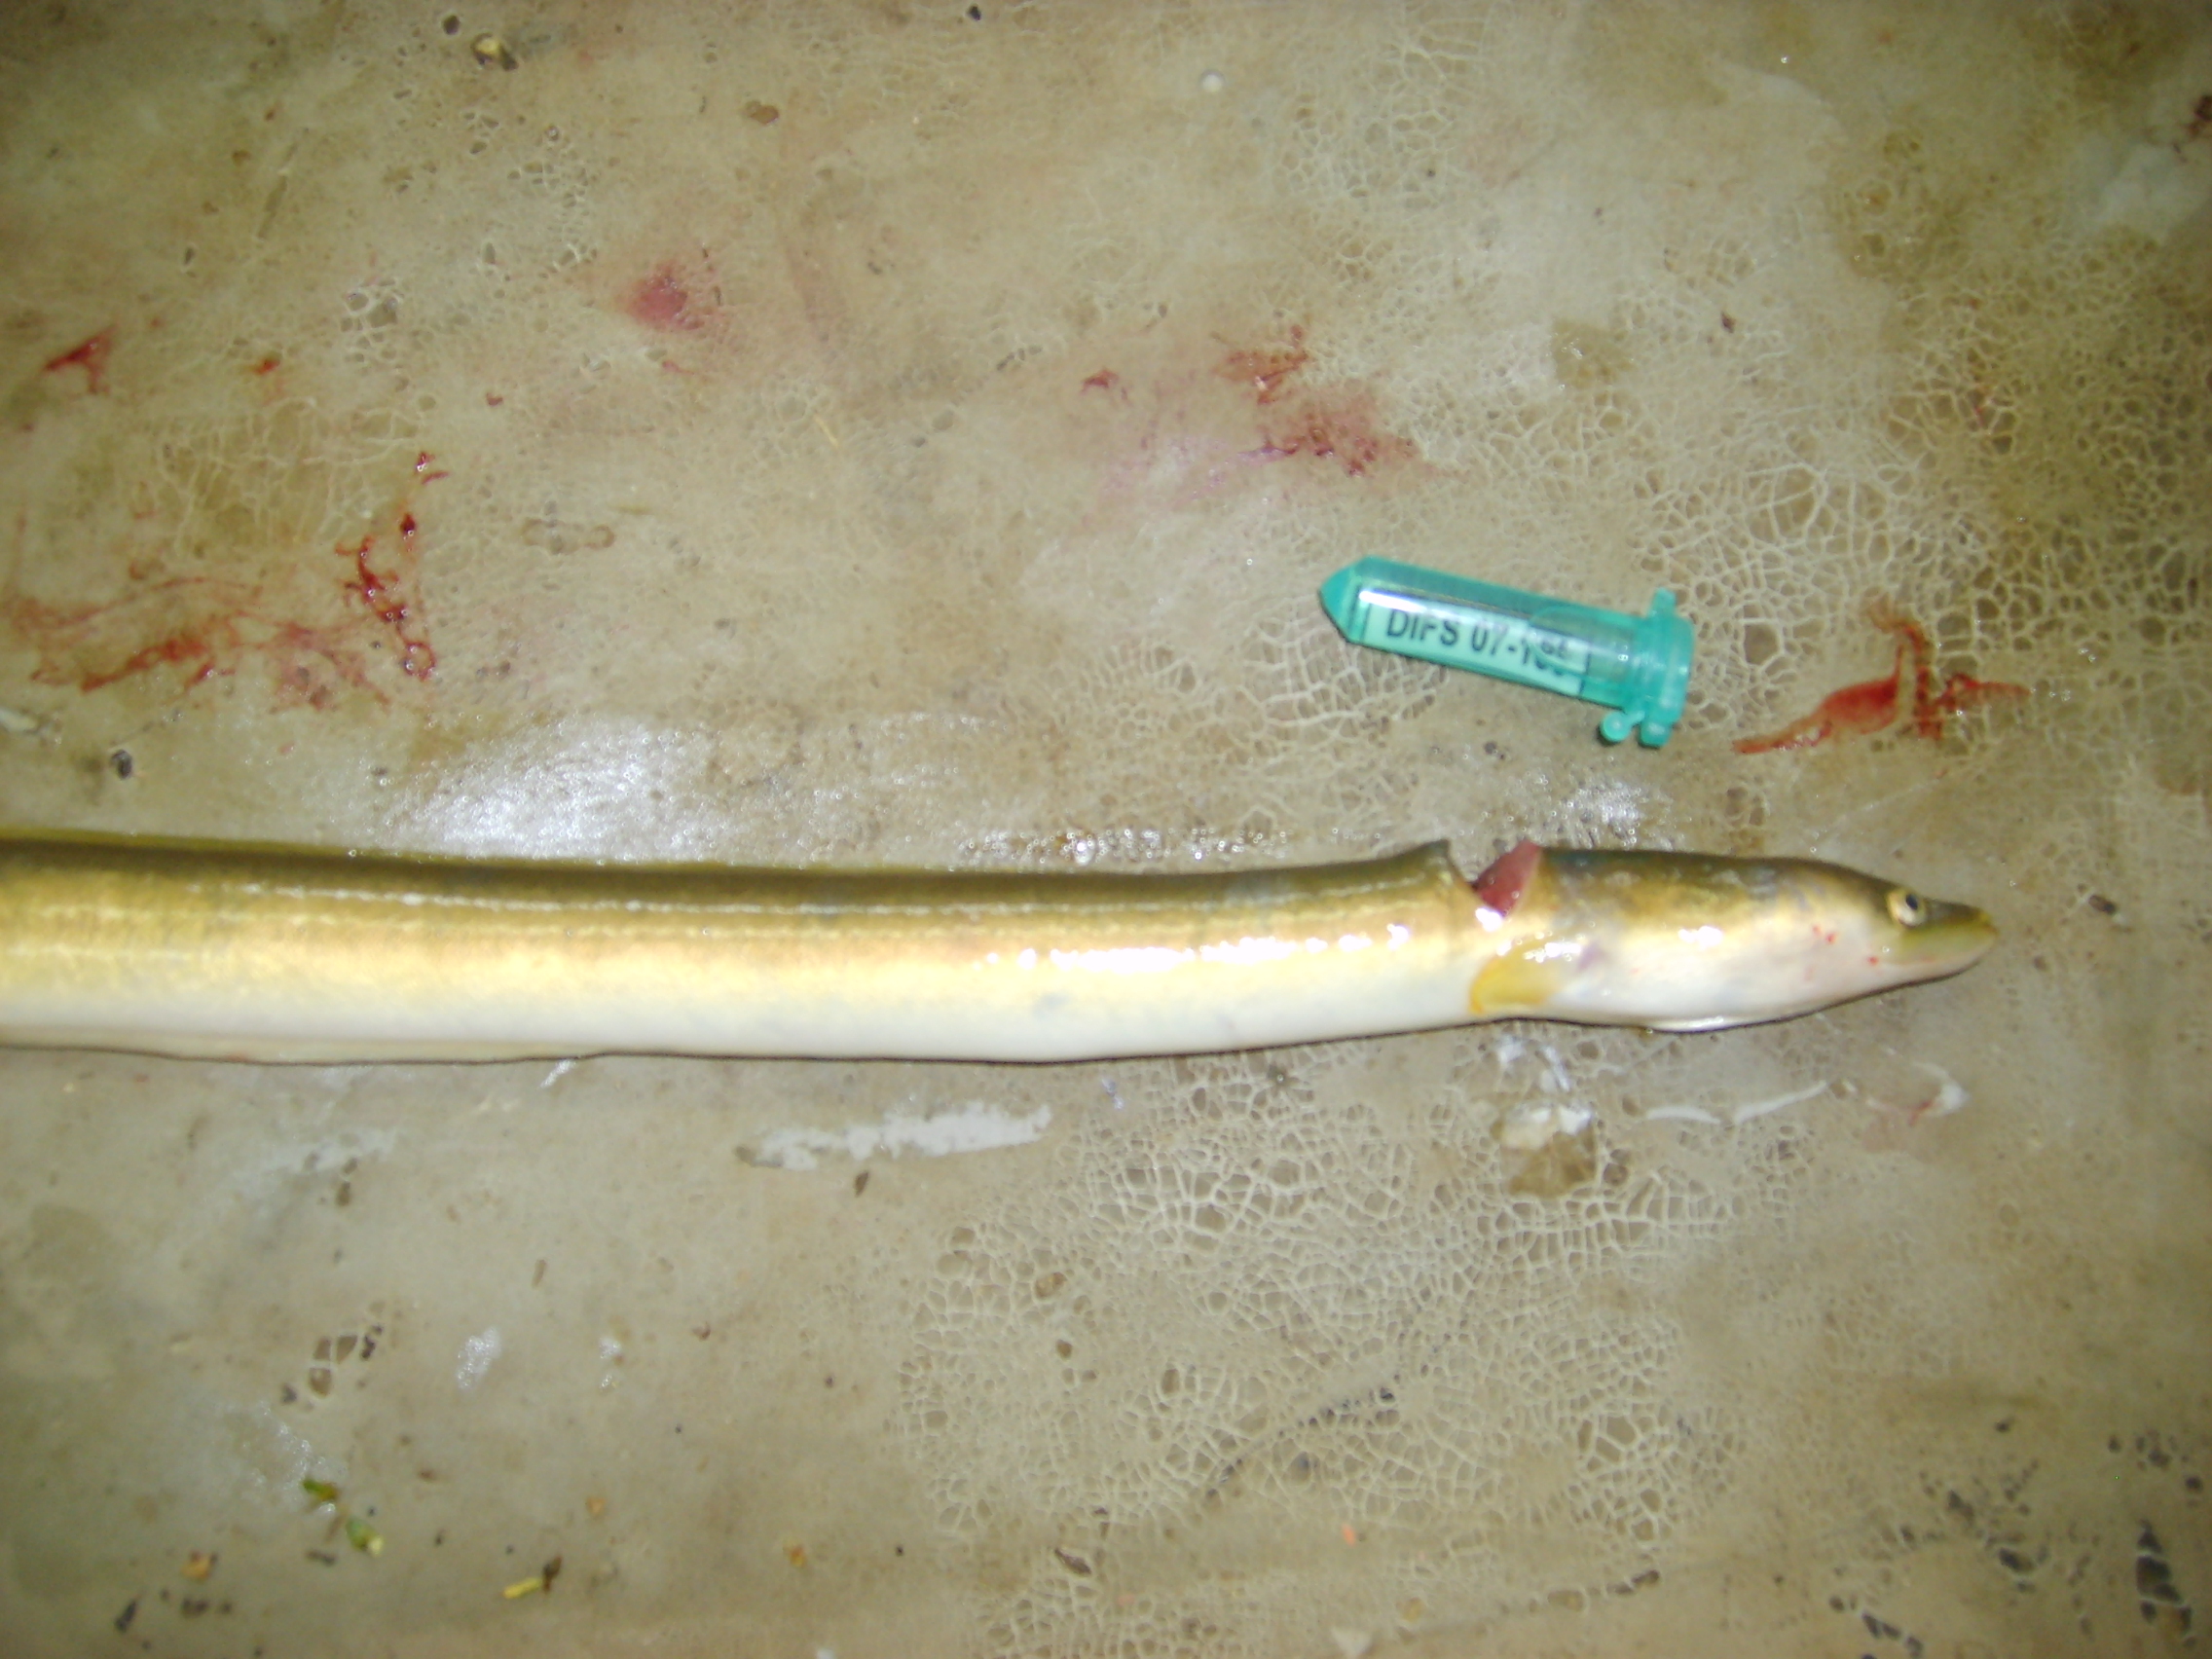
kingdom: Animalia
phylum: Chordata
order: Anguilliformes
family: Anguillidae
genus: Anguilla
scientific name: Anguilla mossambica
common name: African longfin eel
